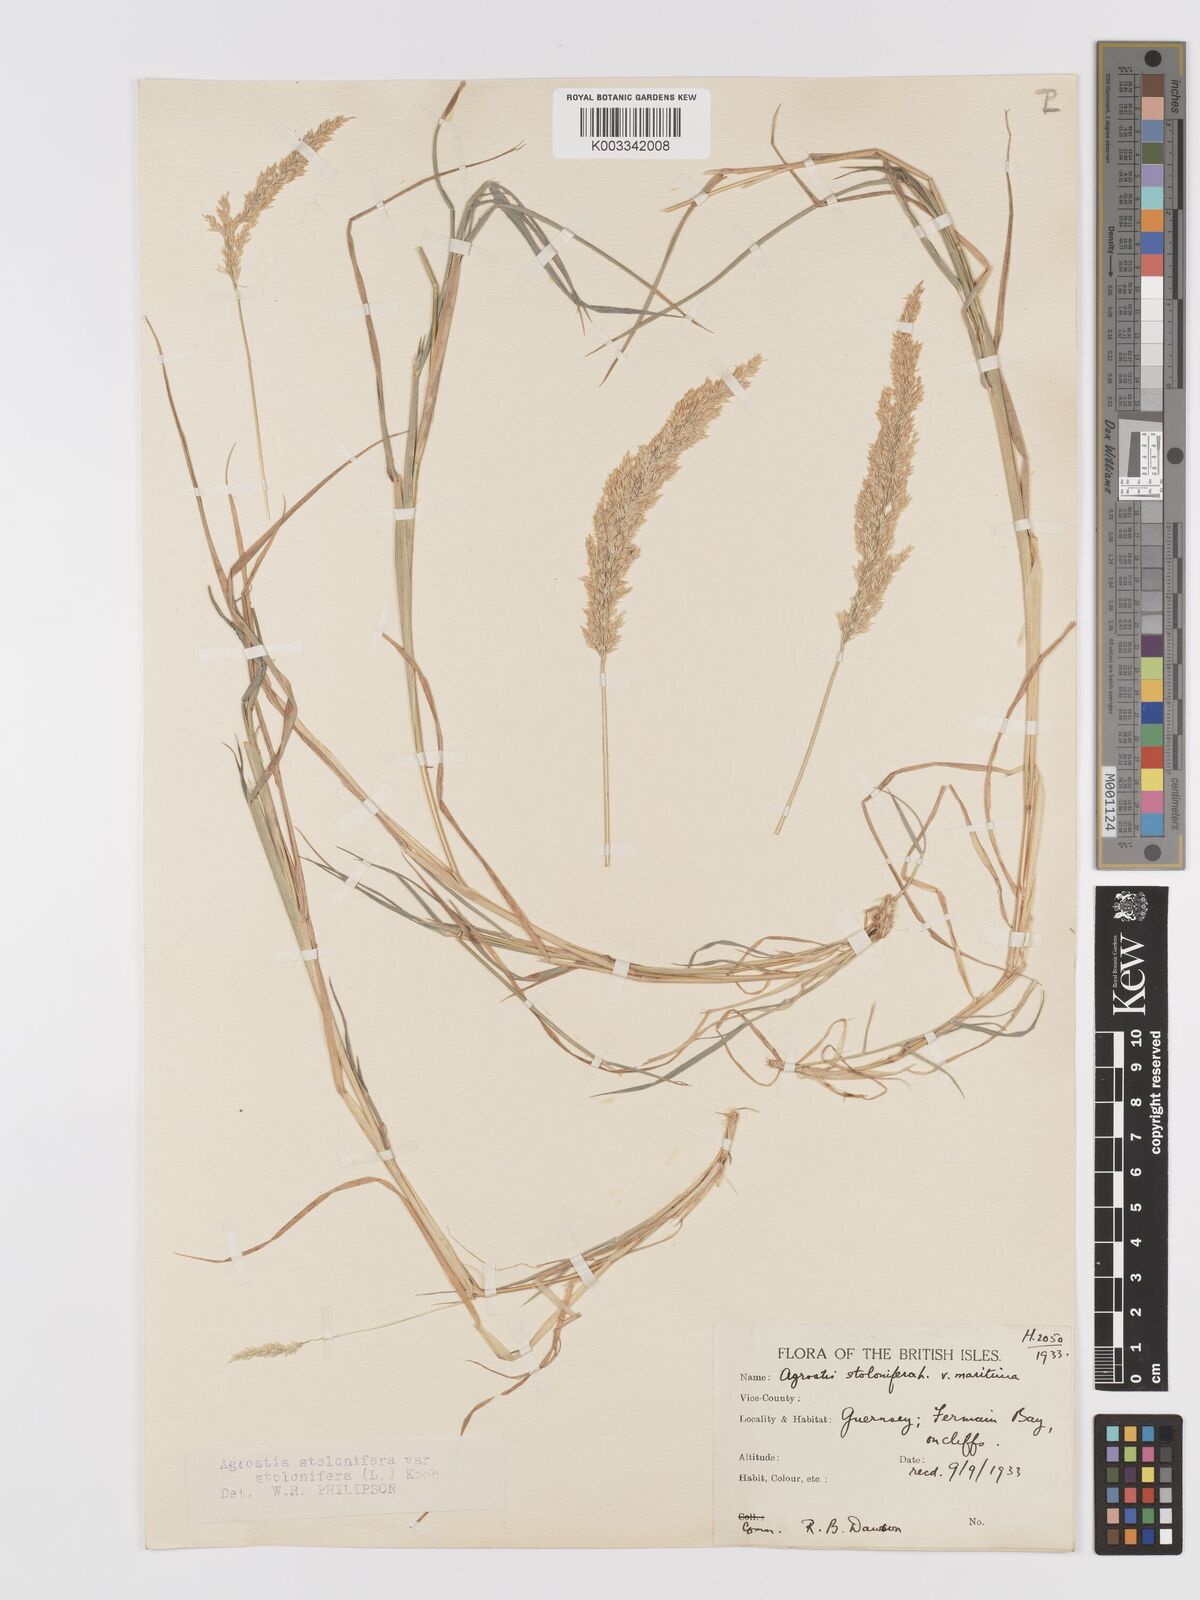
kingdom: Plantae
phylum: Tracheophyta
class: Liliopsida
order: Poales
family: Poaceae
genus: Agrostis
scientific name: Agrostis stolonifera
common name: Creeping bentgrass
